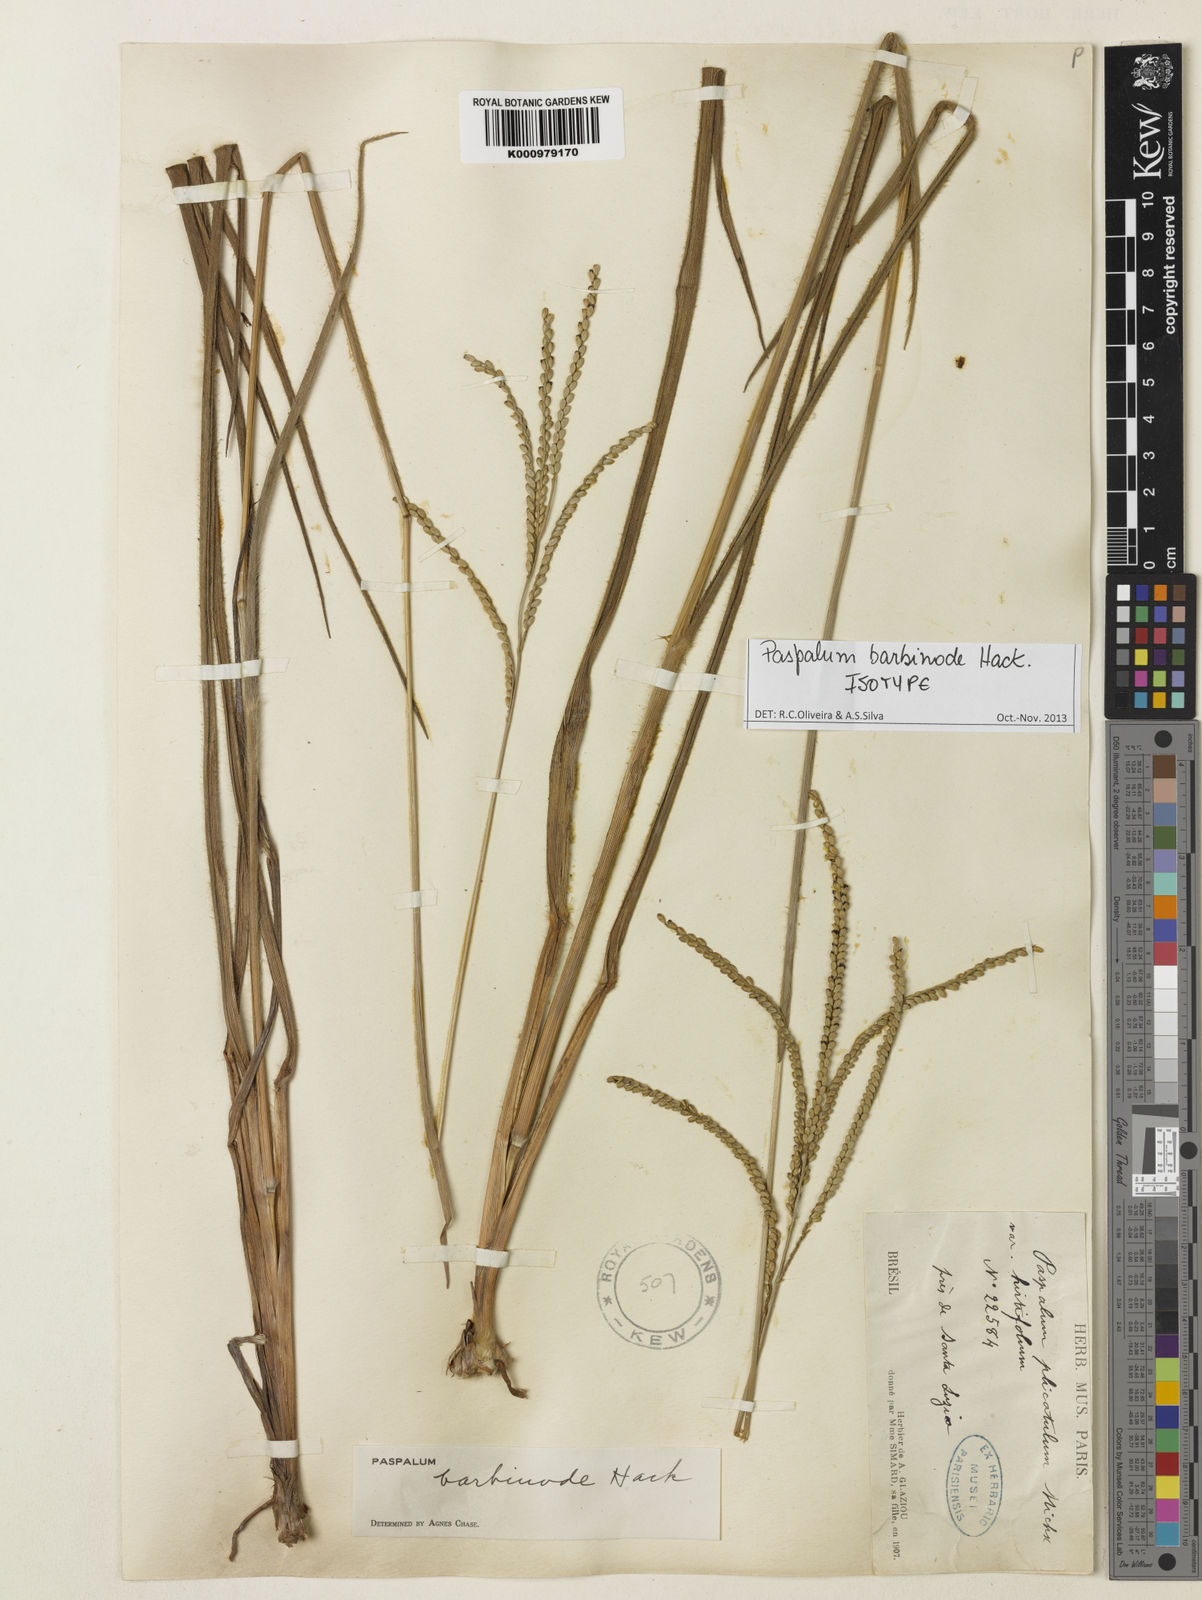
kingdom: Plantae
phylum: Tracheophyta
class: Liliopsida
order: Poales
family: Poaceae
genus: Paspalum
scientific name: Paspalum barbinode
